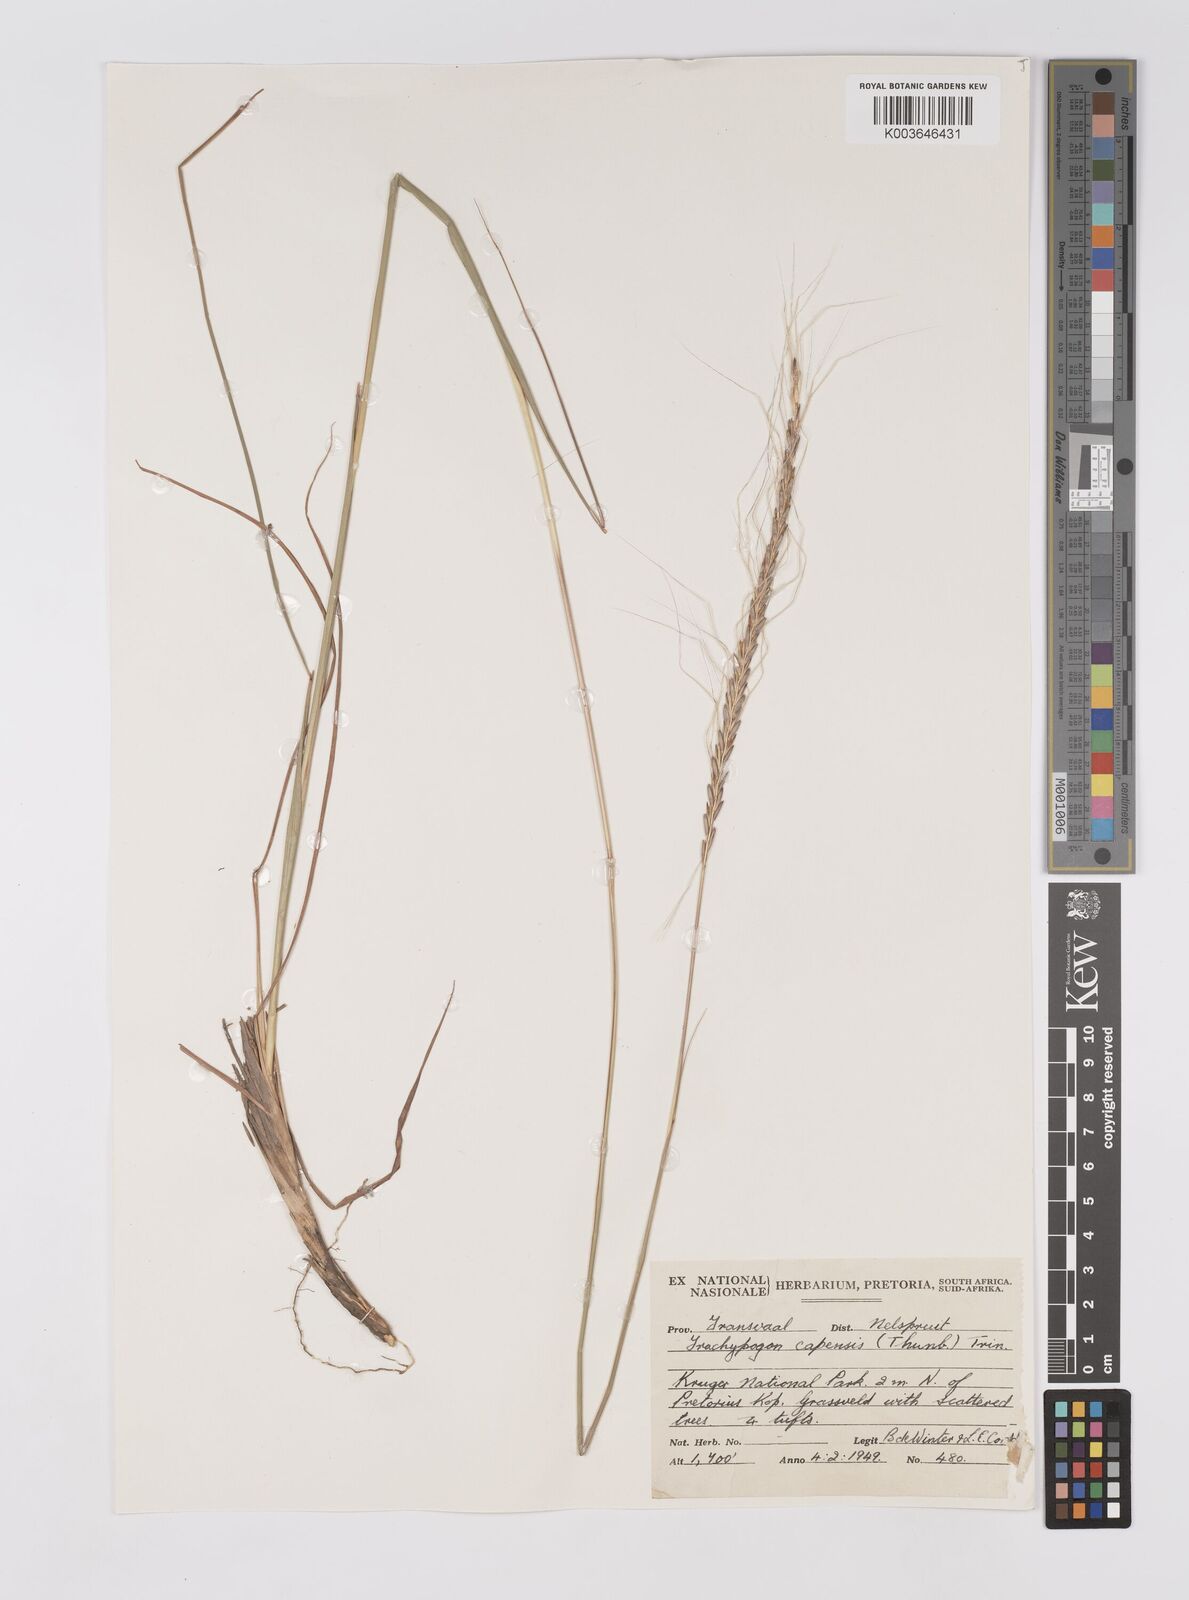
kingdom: Plantae
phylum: Tracheophyta
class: Liliopsida
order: Poales
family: Poaceae
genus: Trachypogon
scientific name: Trachypogon spicatus
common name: Crinkle-awn
